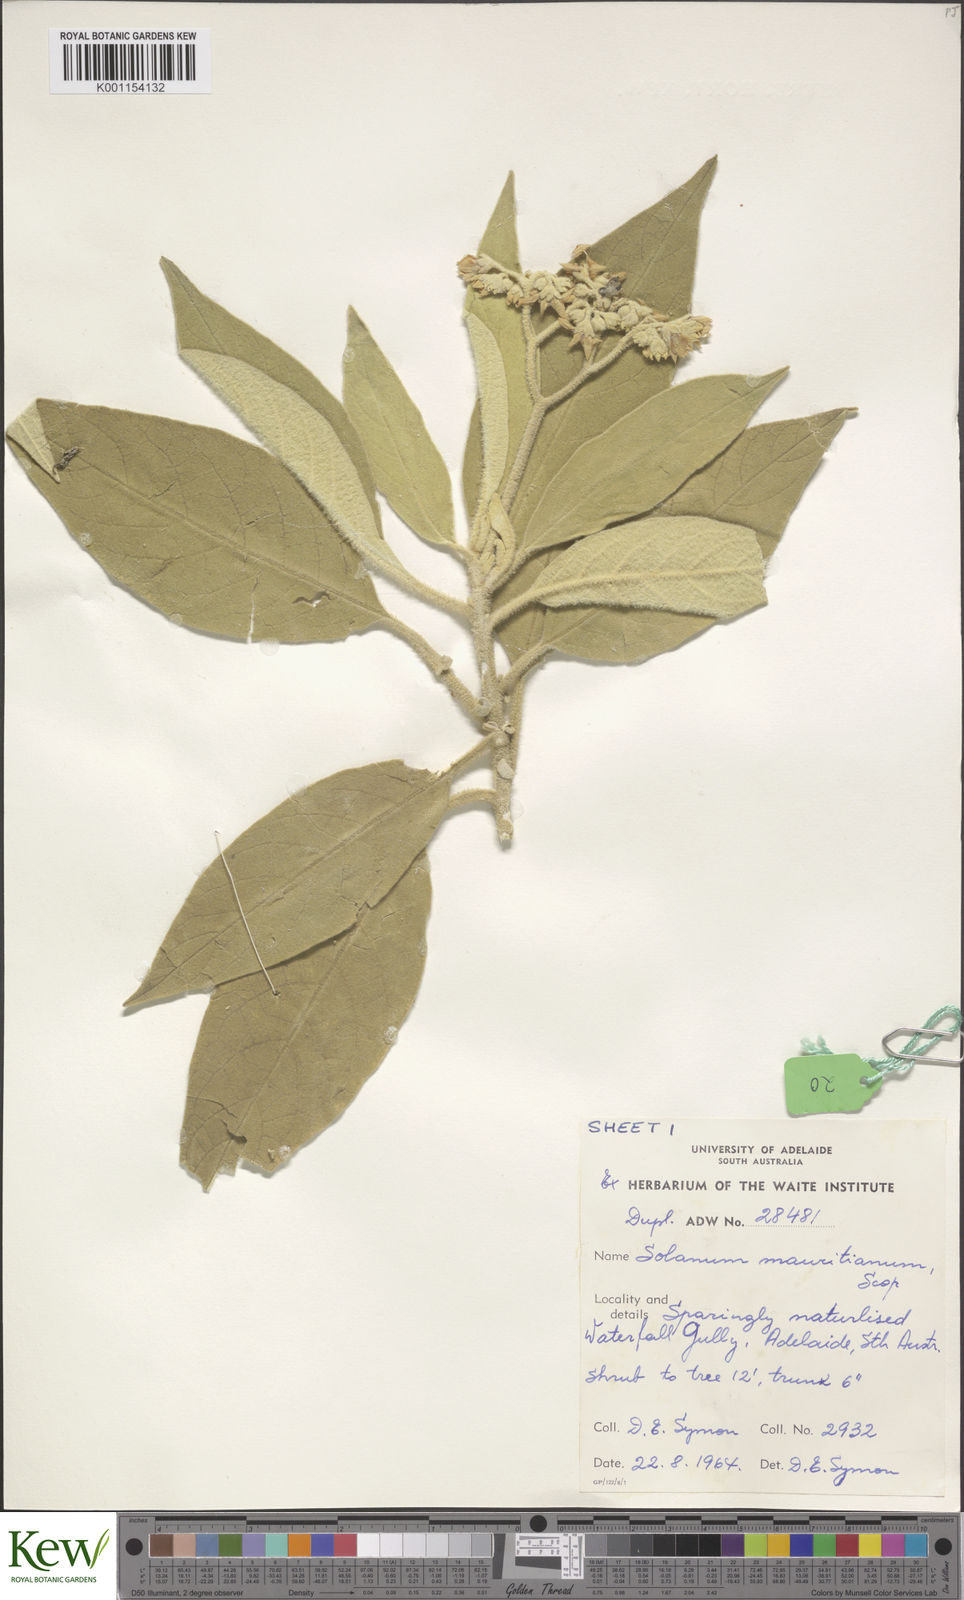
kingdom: Plantae
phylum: Tracheophyta
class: Magnoliopsida
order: Solanales
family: Solanaceae
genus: Solanum
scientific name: Solanum mauritianum
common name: Earleaf nightshade
